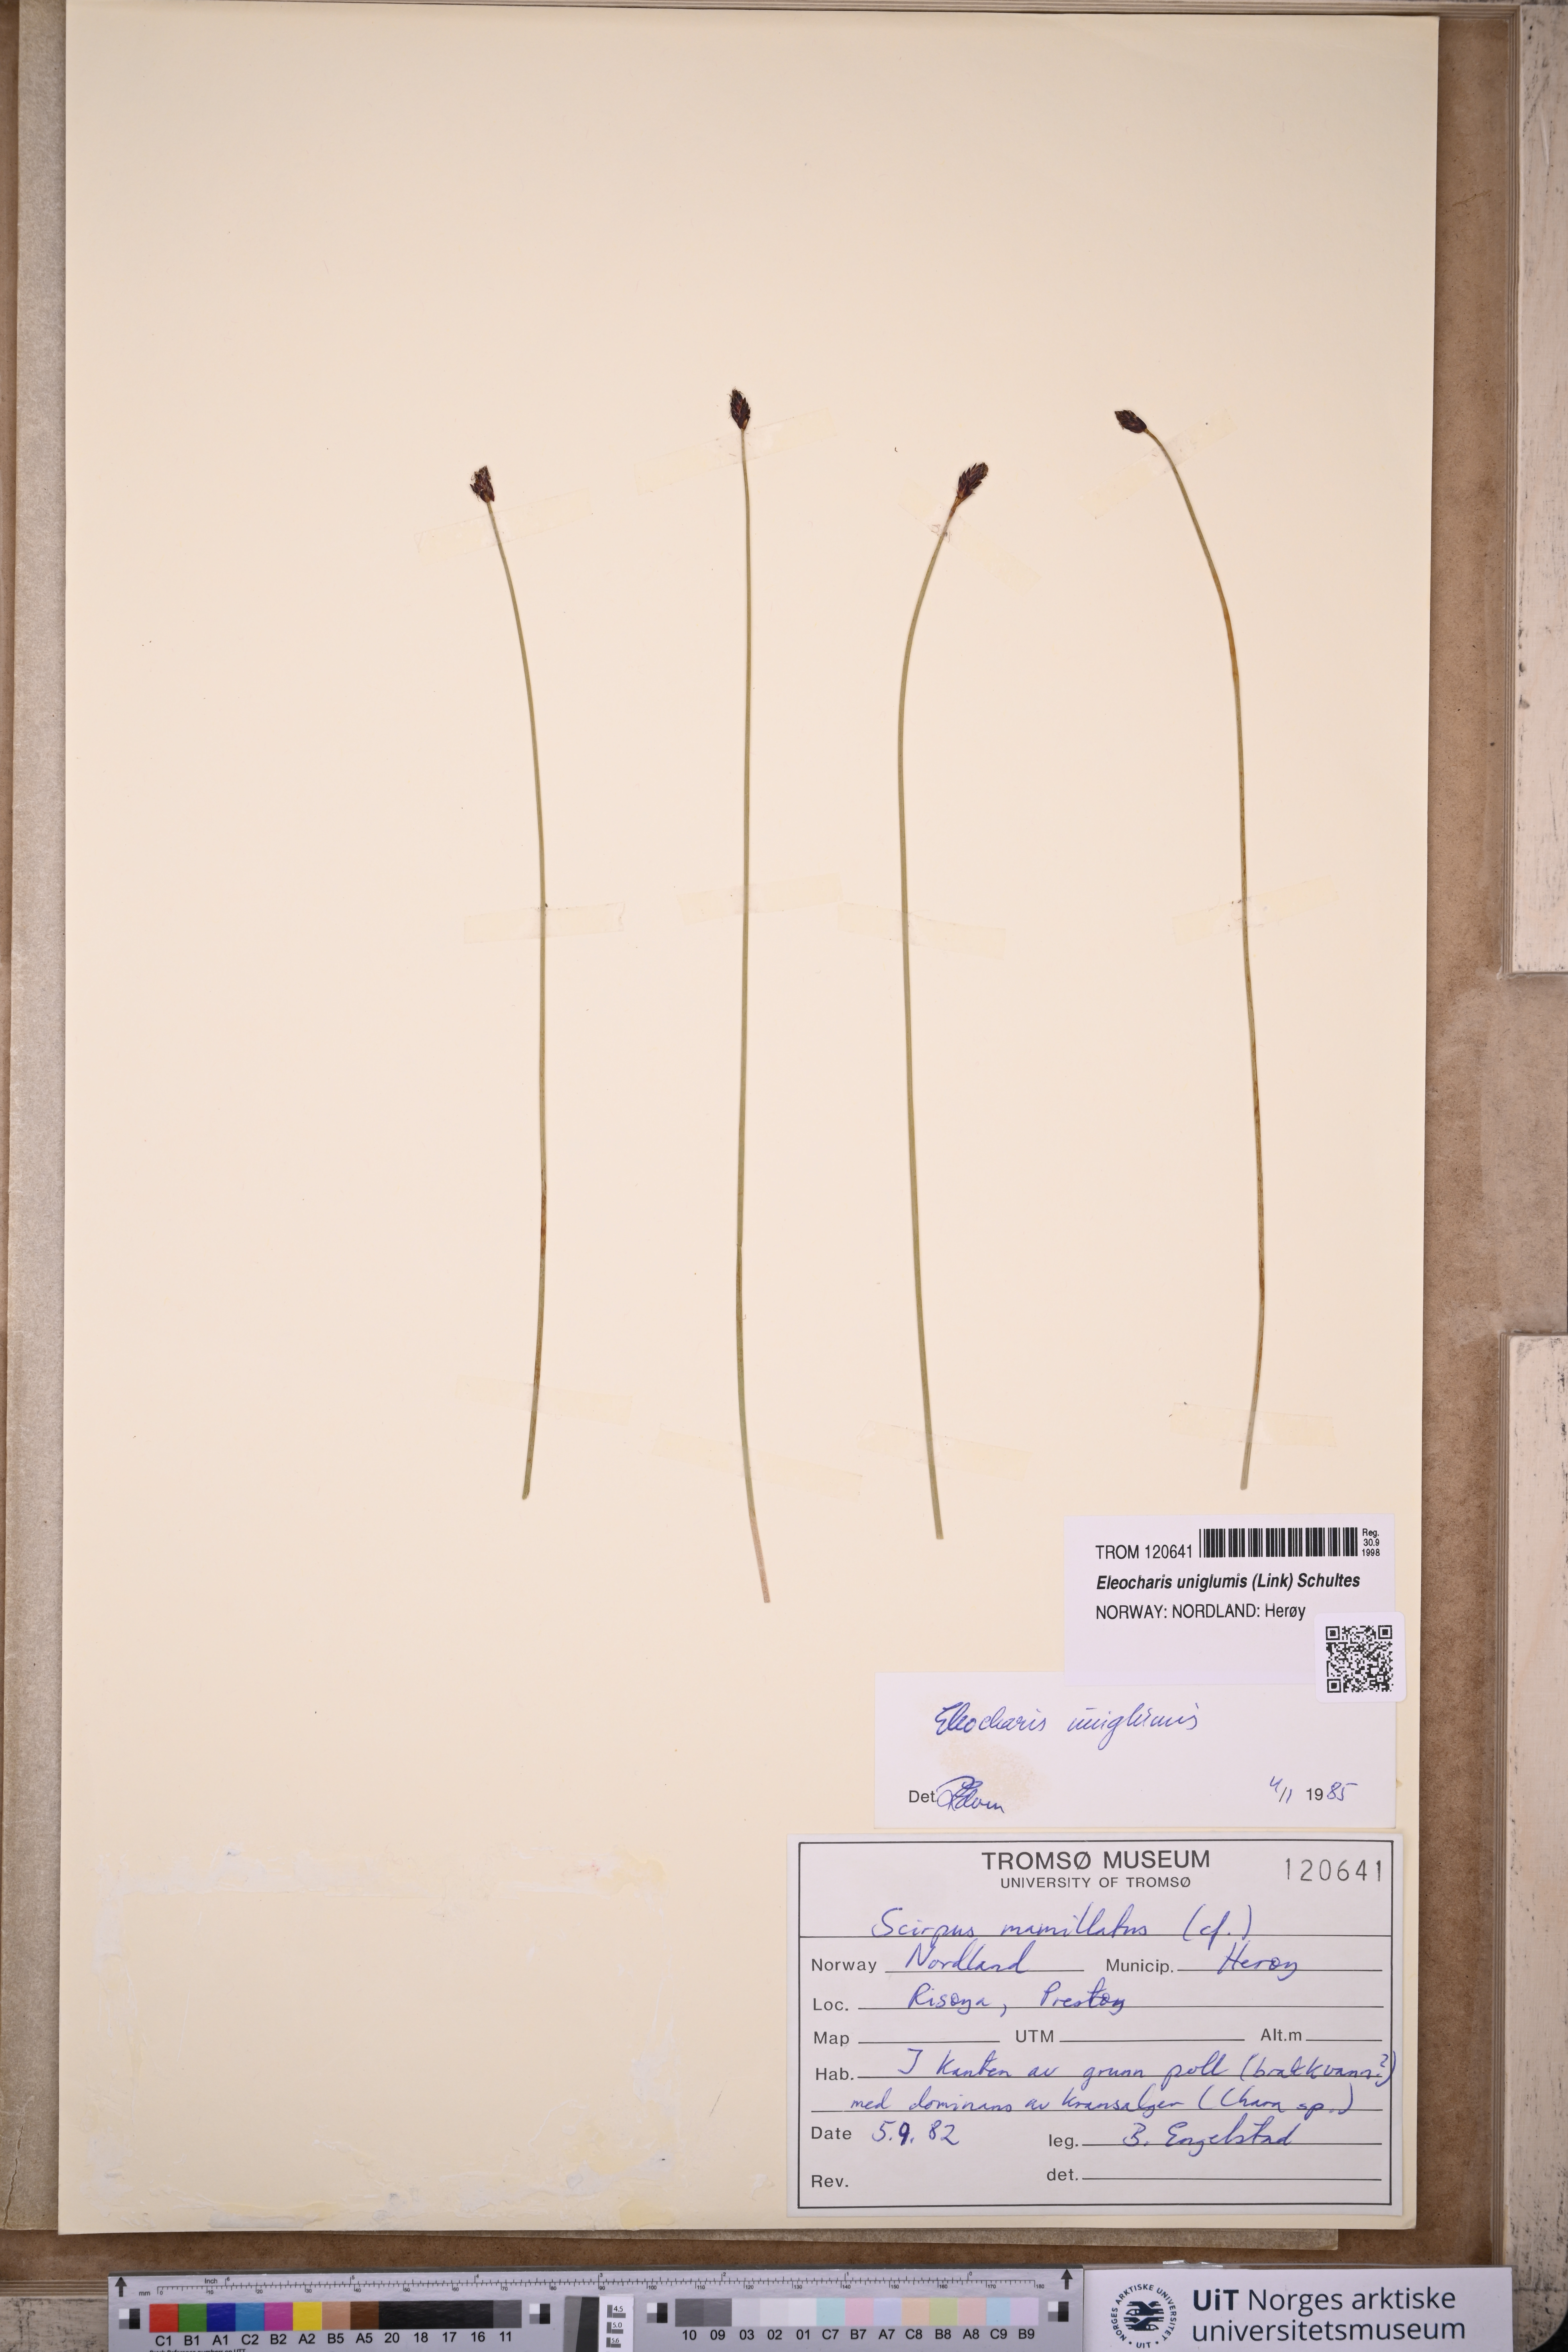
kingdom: Plantae
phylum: Tracheophyta
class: Liliopsida
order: Poales
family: Cyperaceae
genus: Eleocharis
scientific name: Eleocharis uniglumis
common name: Slender spike-rush
